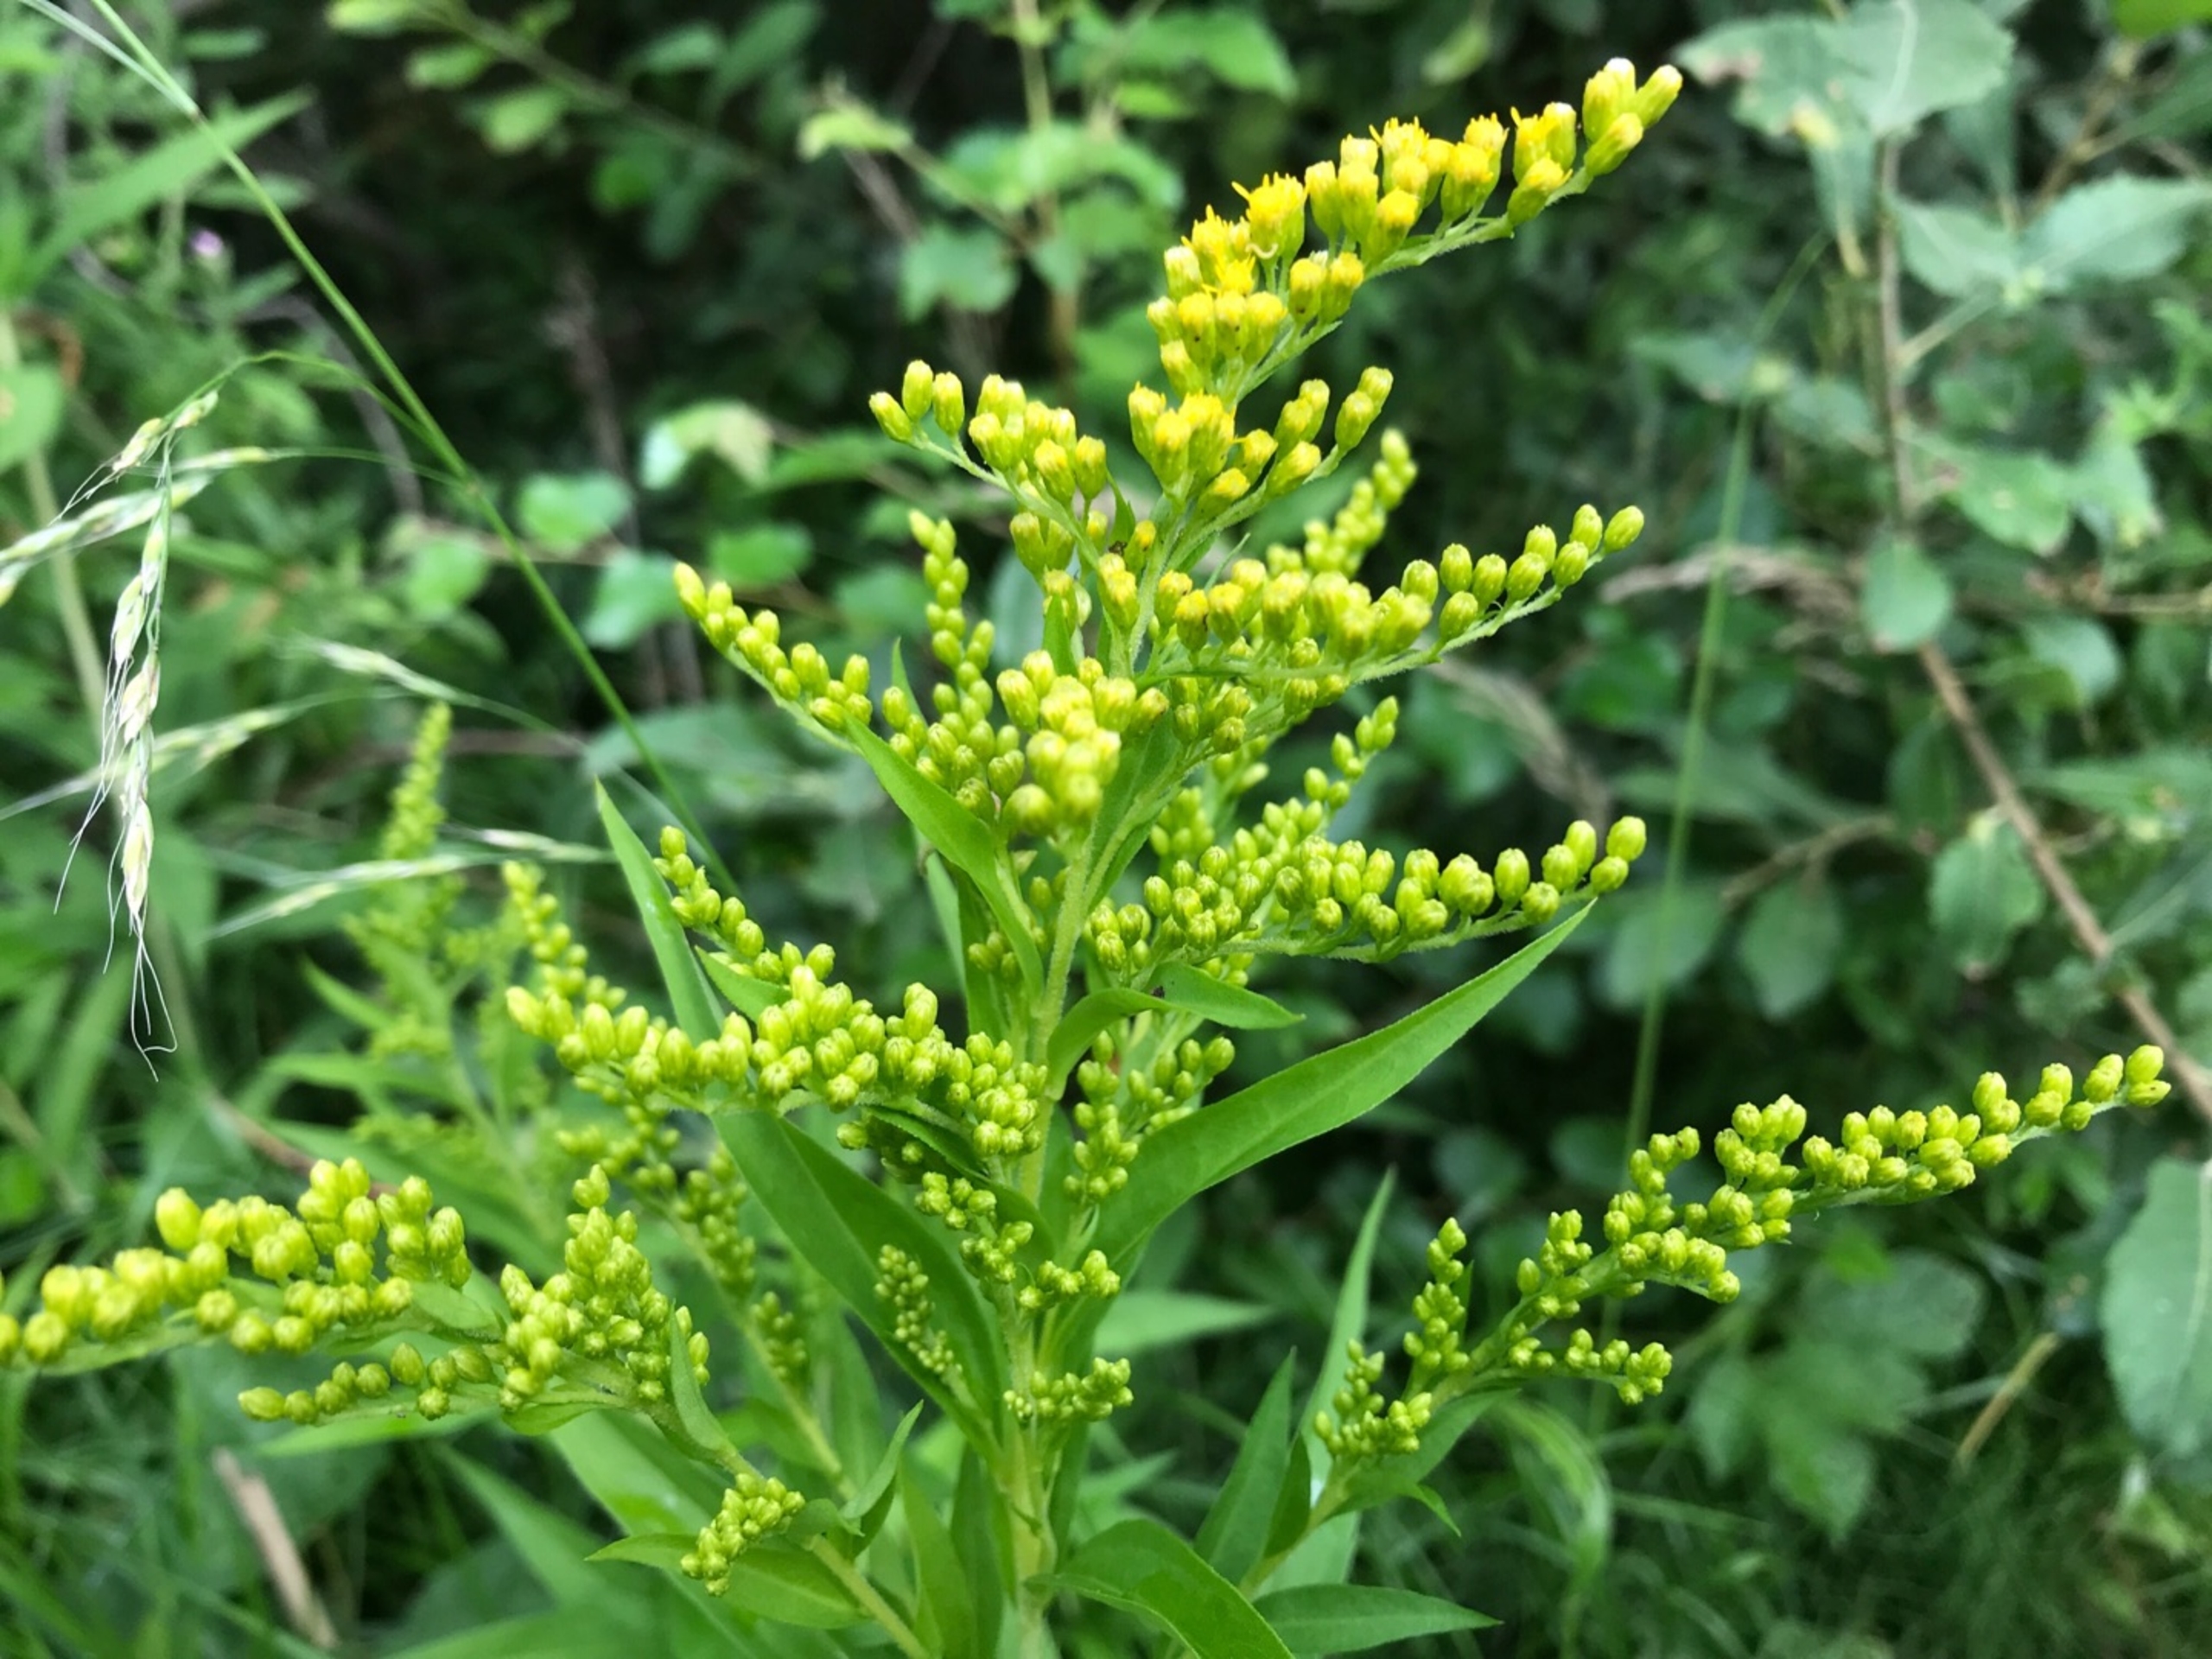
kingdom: Plantae
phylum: Tracheophyta
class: Magnoliopsida
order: Asterales
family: Asteraceae
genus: Solidago
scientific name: Solidago gigantea
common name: Sildig gyldenris
